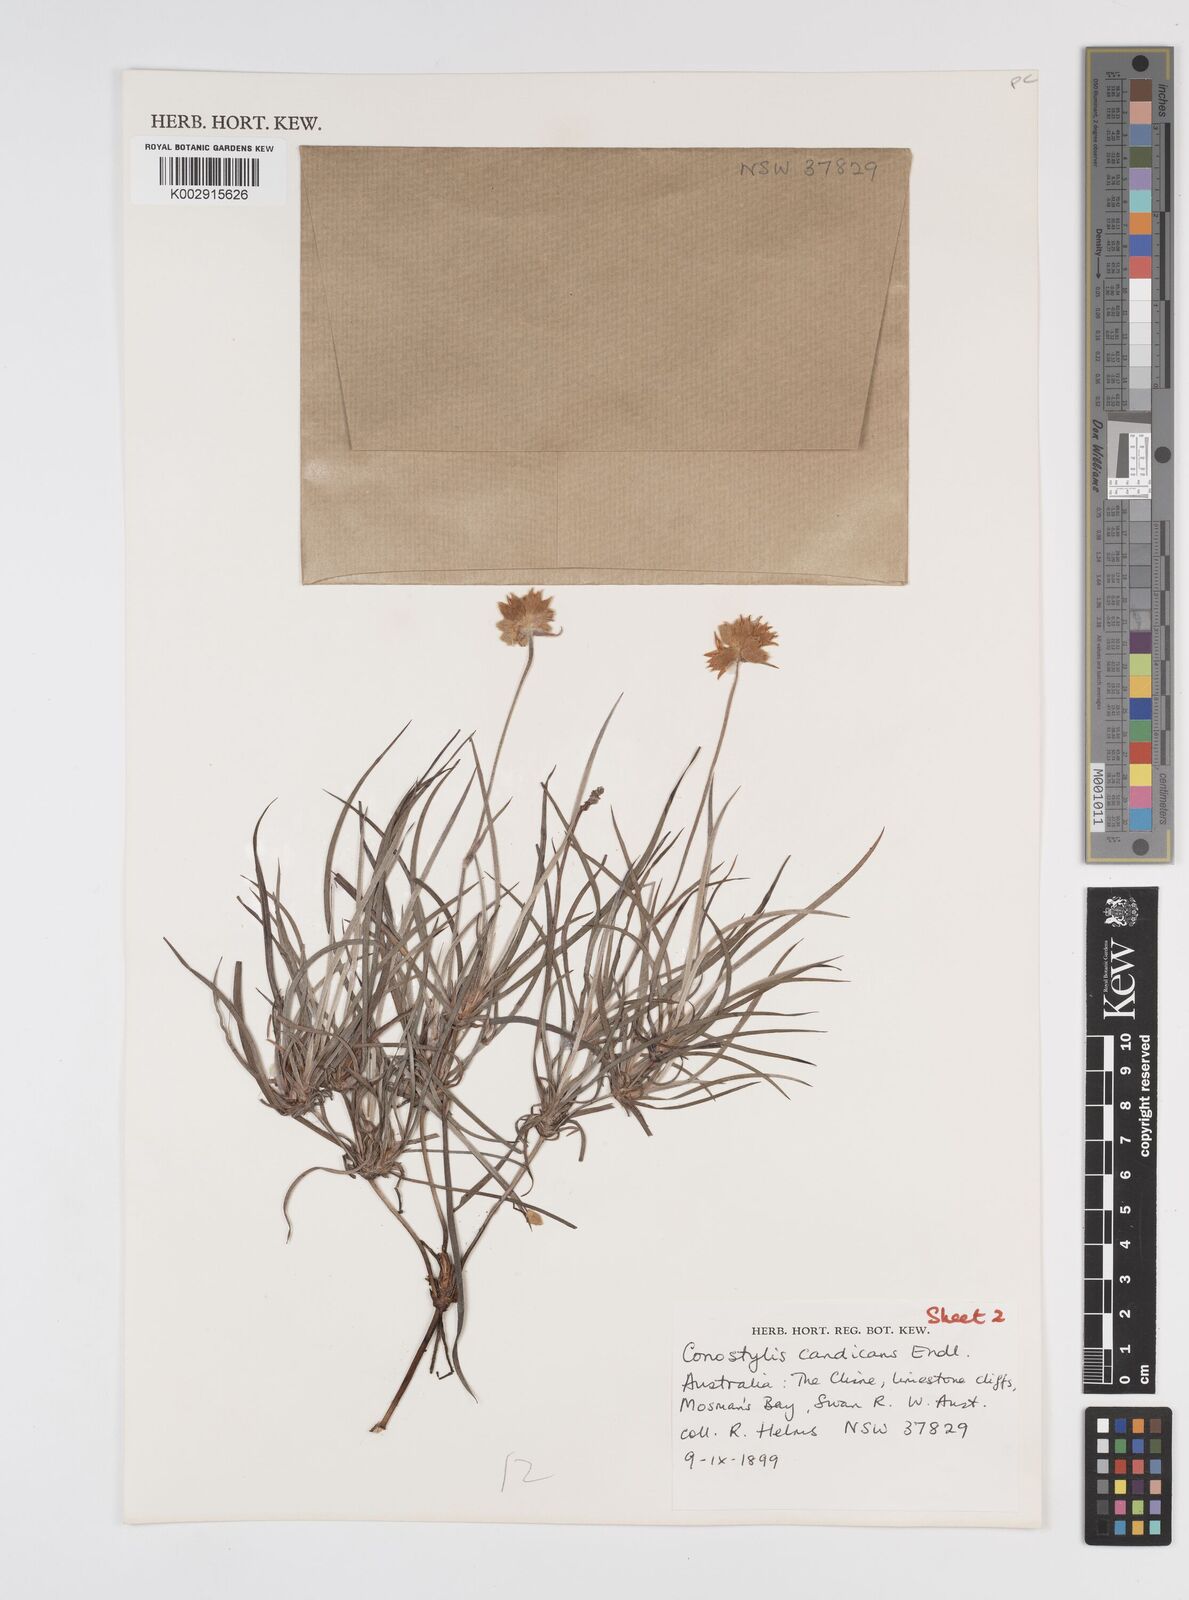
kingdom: Plantae
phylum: Tracheophyta
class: Liliopsida
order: Commelinales
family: Haemodoraceae
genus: Conostylis
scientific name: Conostylis candicans
